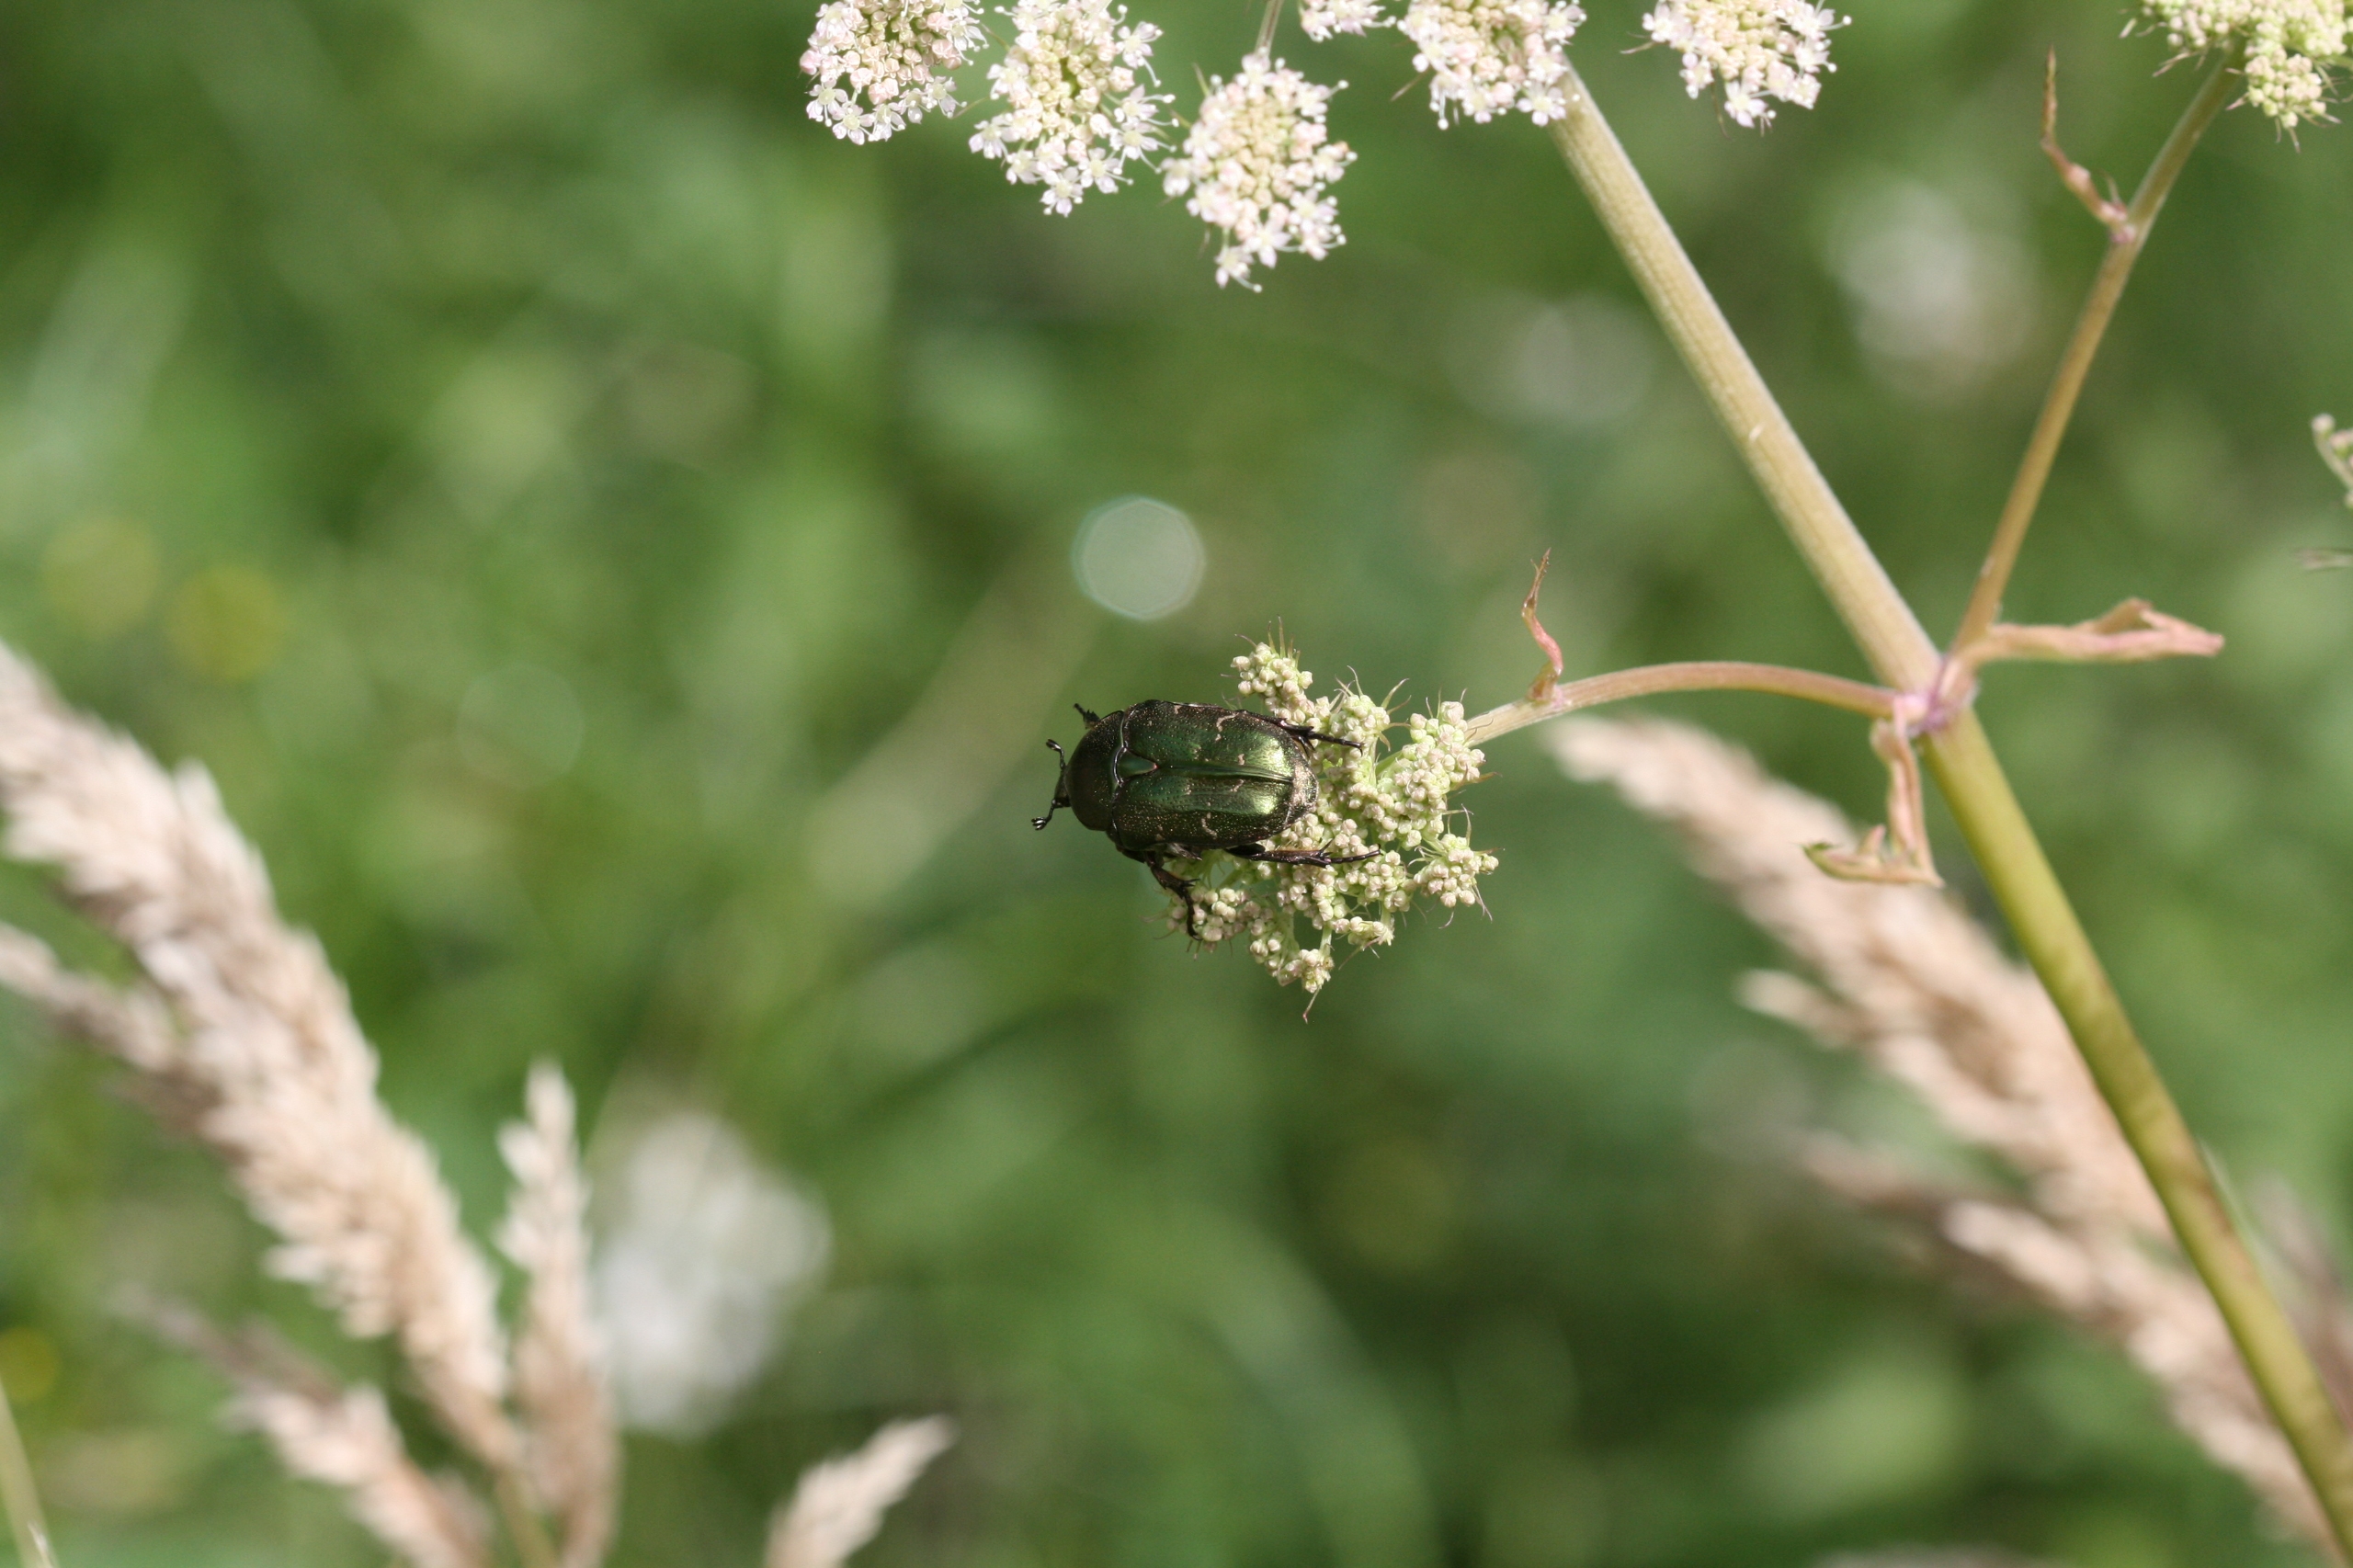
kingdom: Animalia
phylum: Arthropoda
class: Insecta
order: Coleoptera
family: Scarabaeidae
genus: Protaetia
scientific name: Protaetia cuprea
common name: Kobberguldbasse
